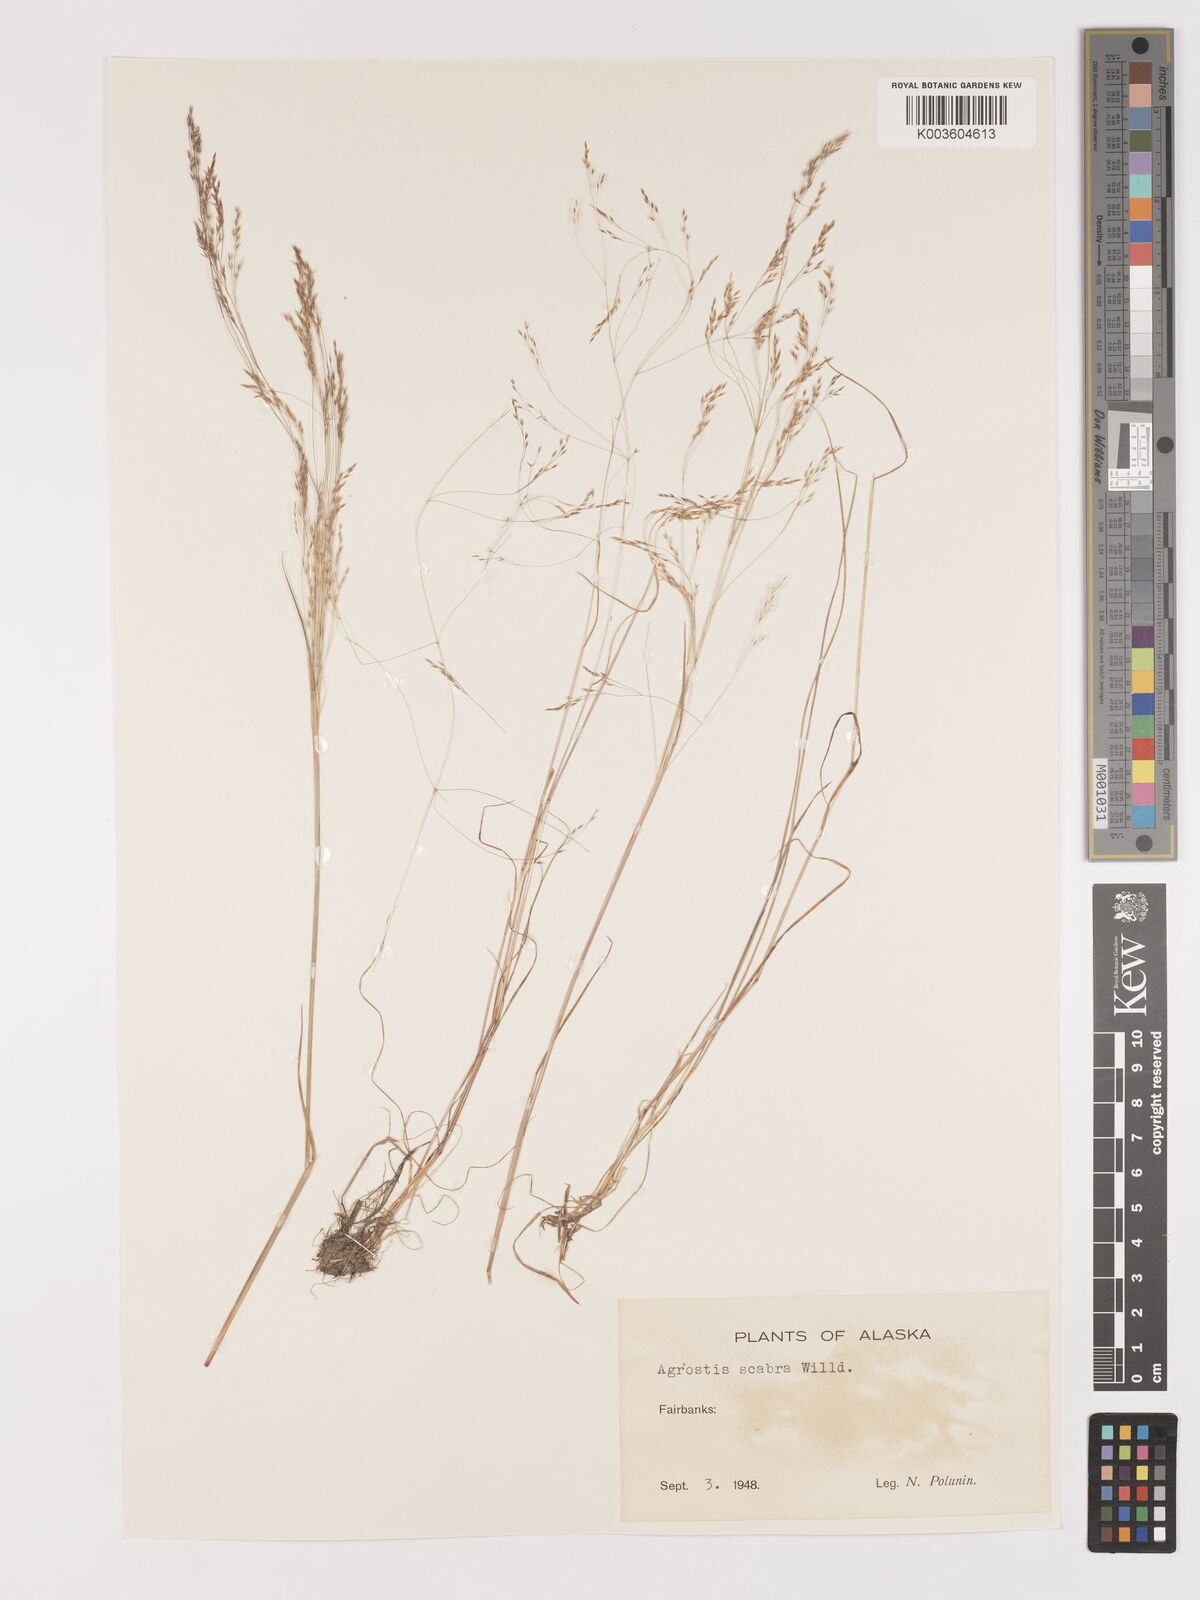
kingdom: Plantae
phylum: Tracheophyta
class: Liliopsida
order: Poales
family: Poaceae
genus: Agrostis
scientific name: Agrostis
